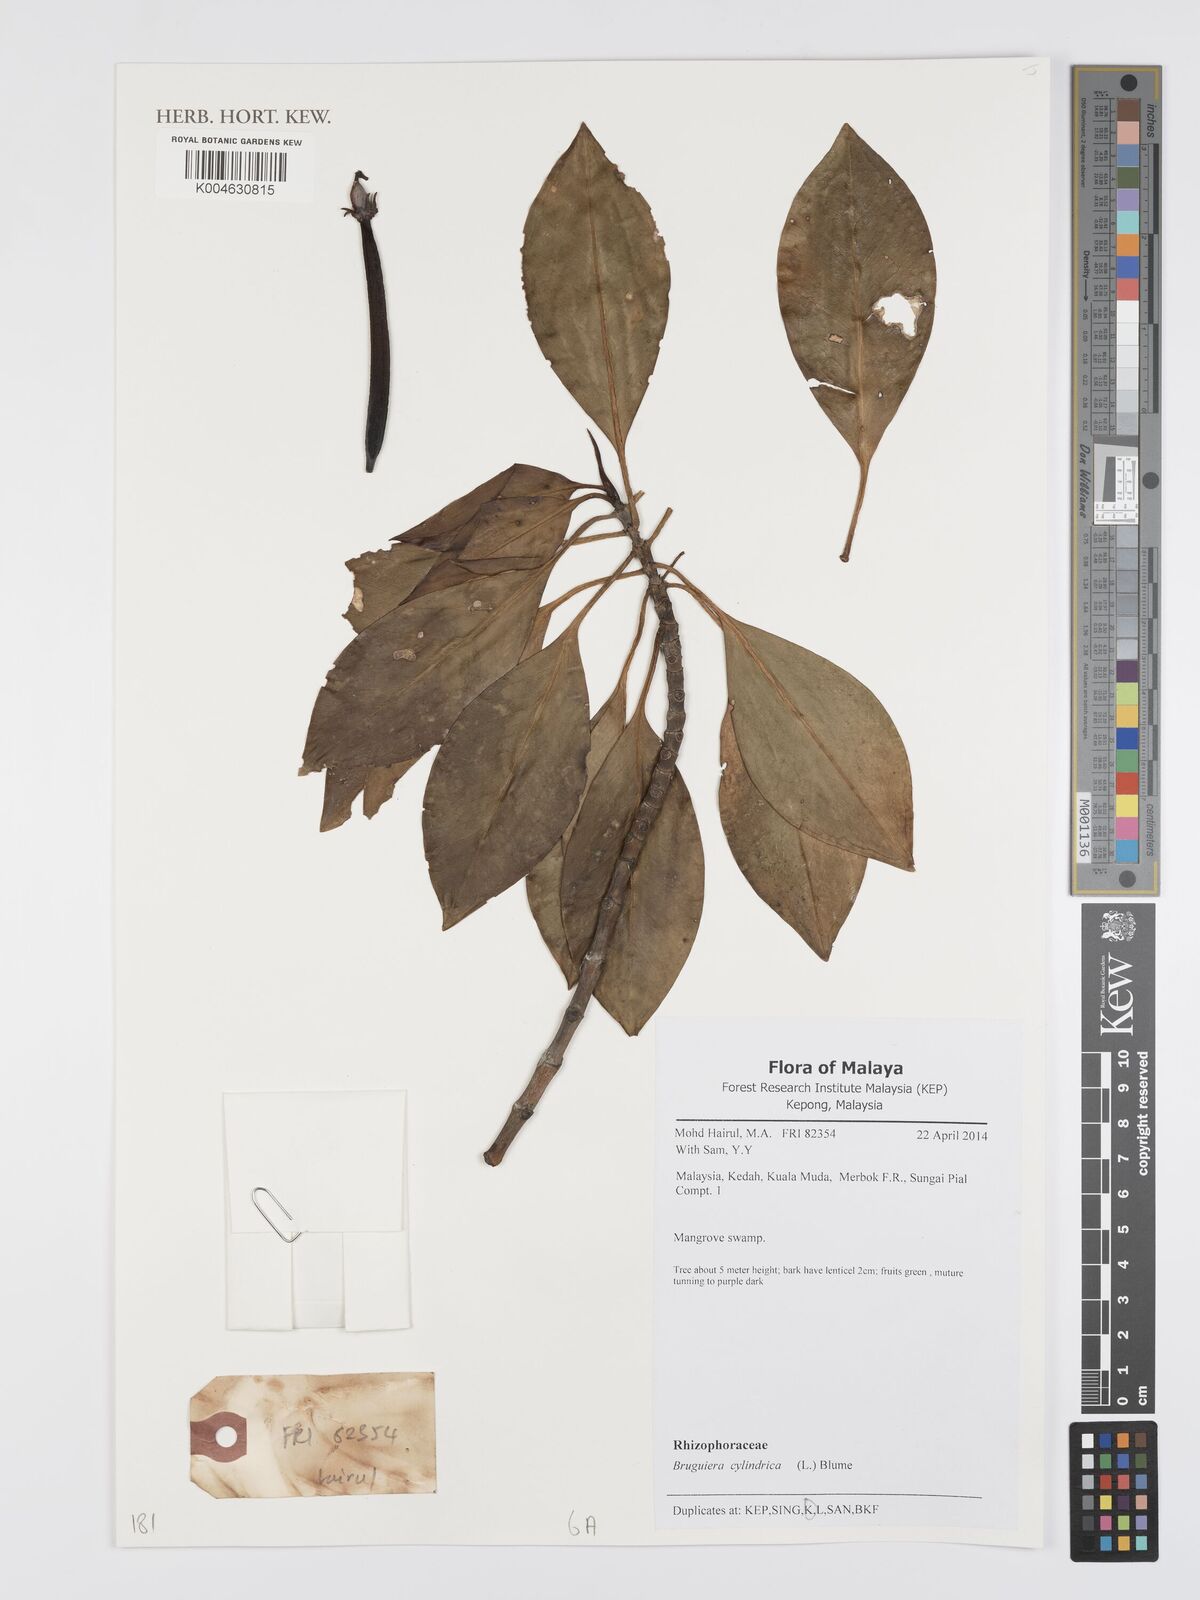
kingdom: Plantae
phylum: Tracheophyta
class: Magnoliopsida
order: Malpighiales
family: Rhizophoraceae
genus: Bruguiera
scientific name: Bruguiera cylindrica
